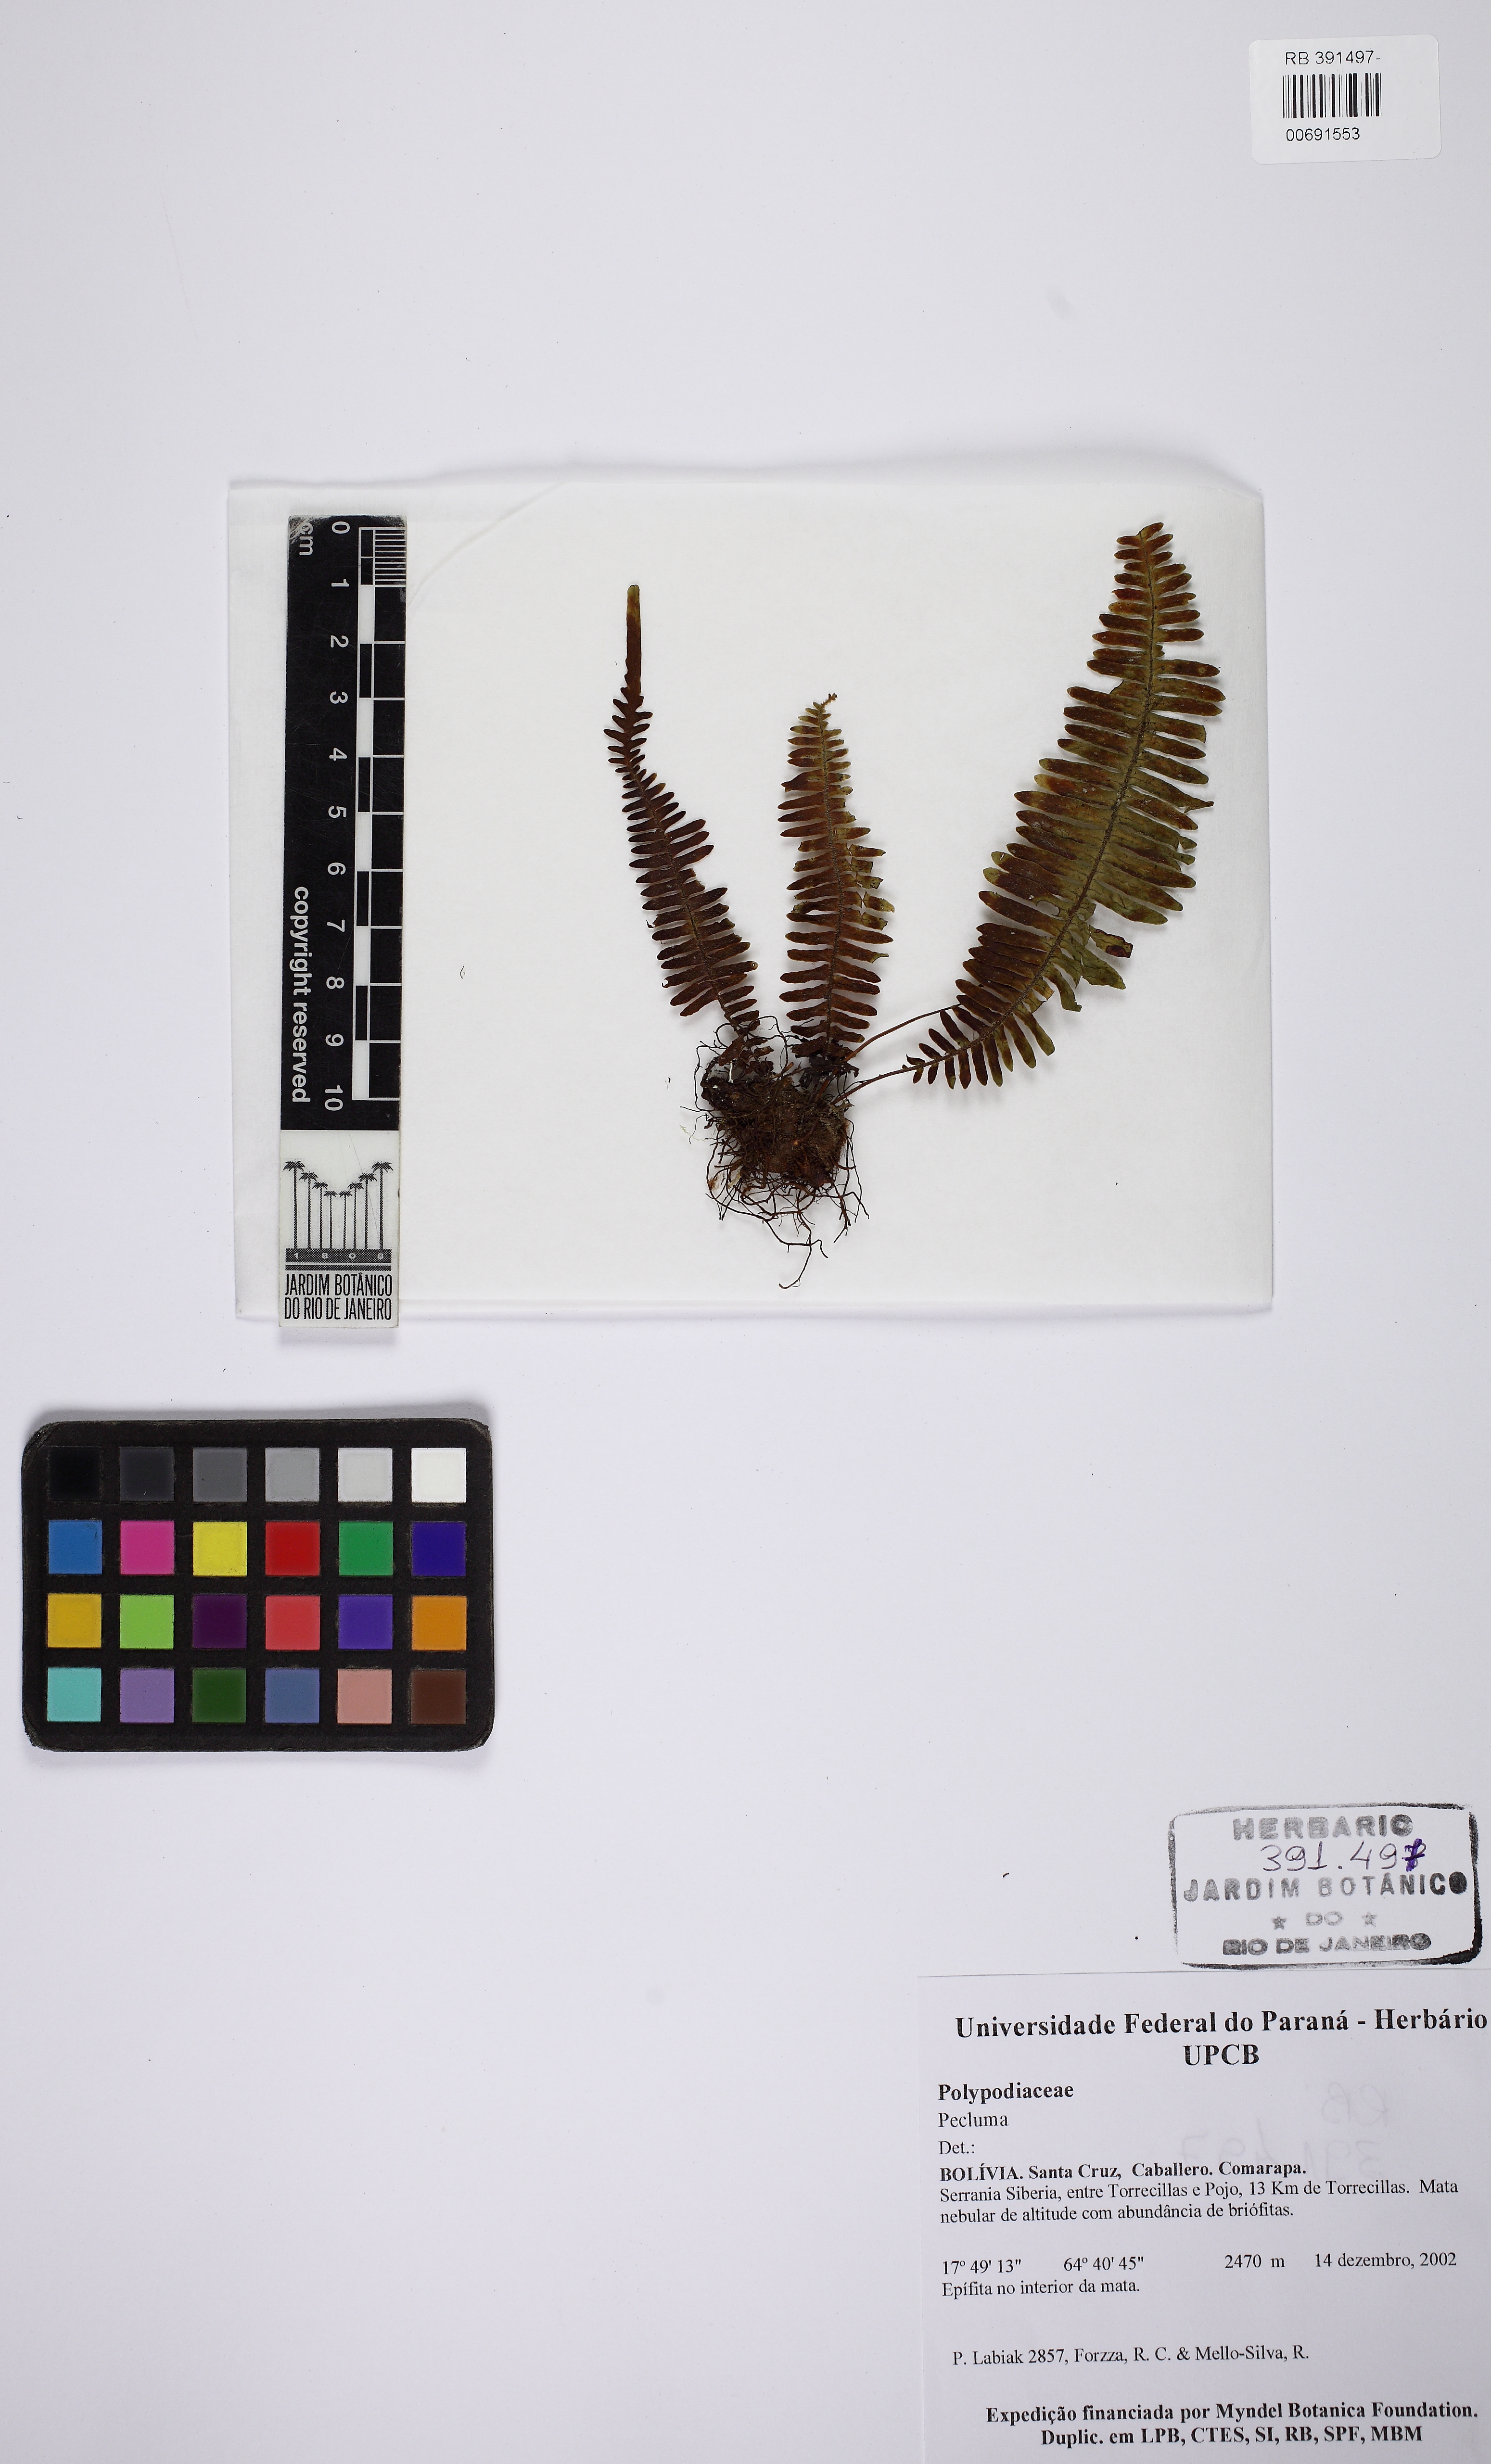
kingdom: Plantae
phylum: Tracheophyta
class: Polypodiopsida
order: Polypodiales
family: Polypodiaceae
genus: Pecluma
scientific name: Pecluma
